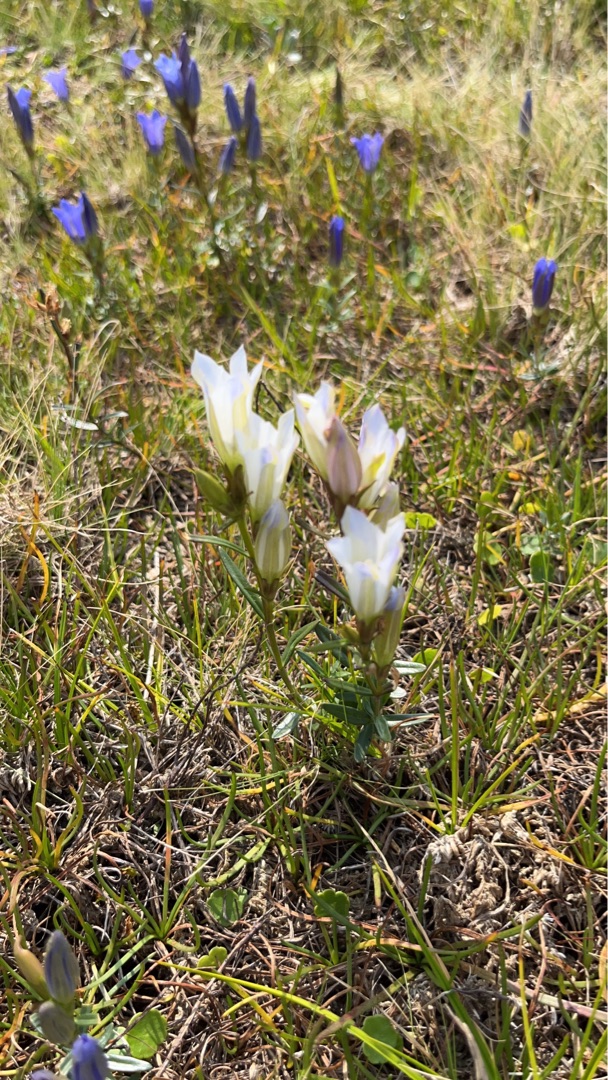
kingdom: Plantae
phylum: Tracheophyta
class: Magnoliopsida
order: Gentianales
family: Gentianaceae
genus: Gentiana
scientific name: Gentiana pneumonanthe
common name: Klokke-ensian
